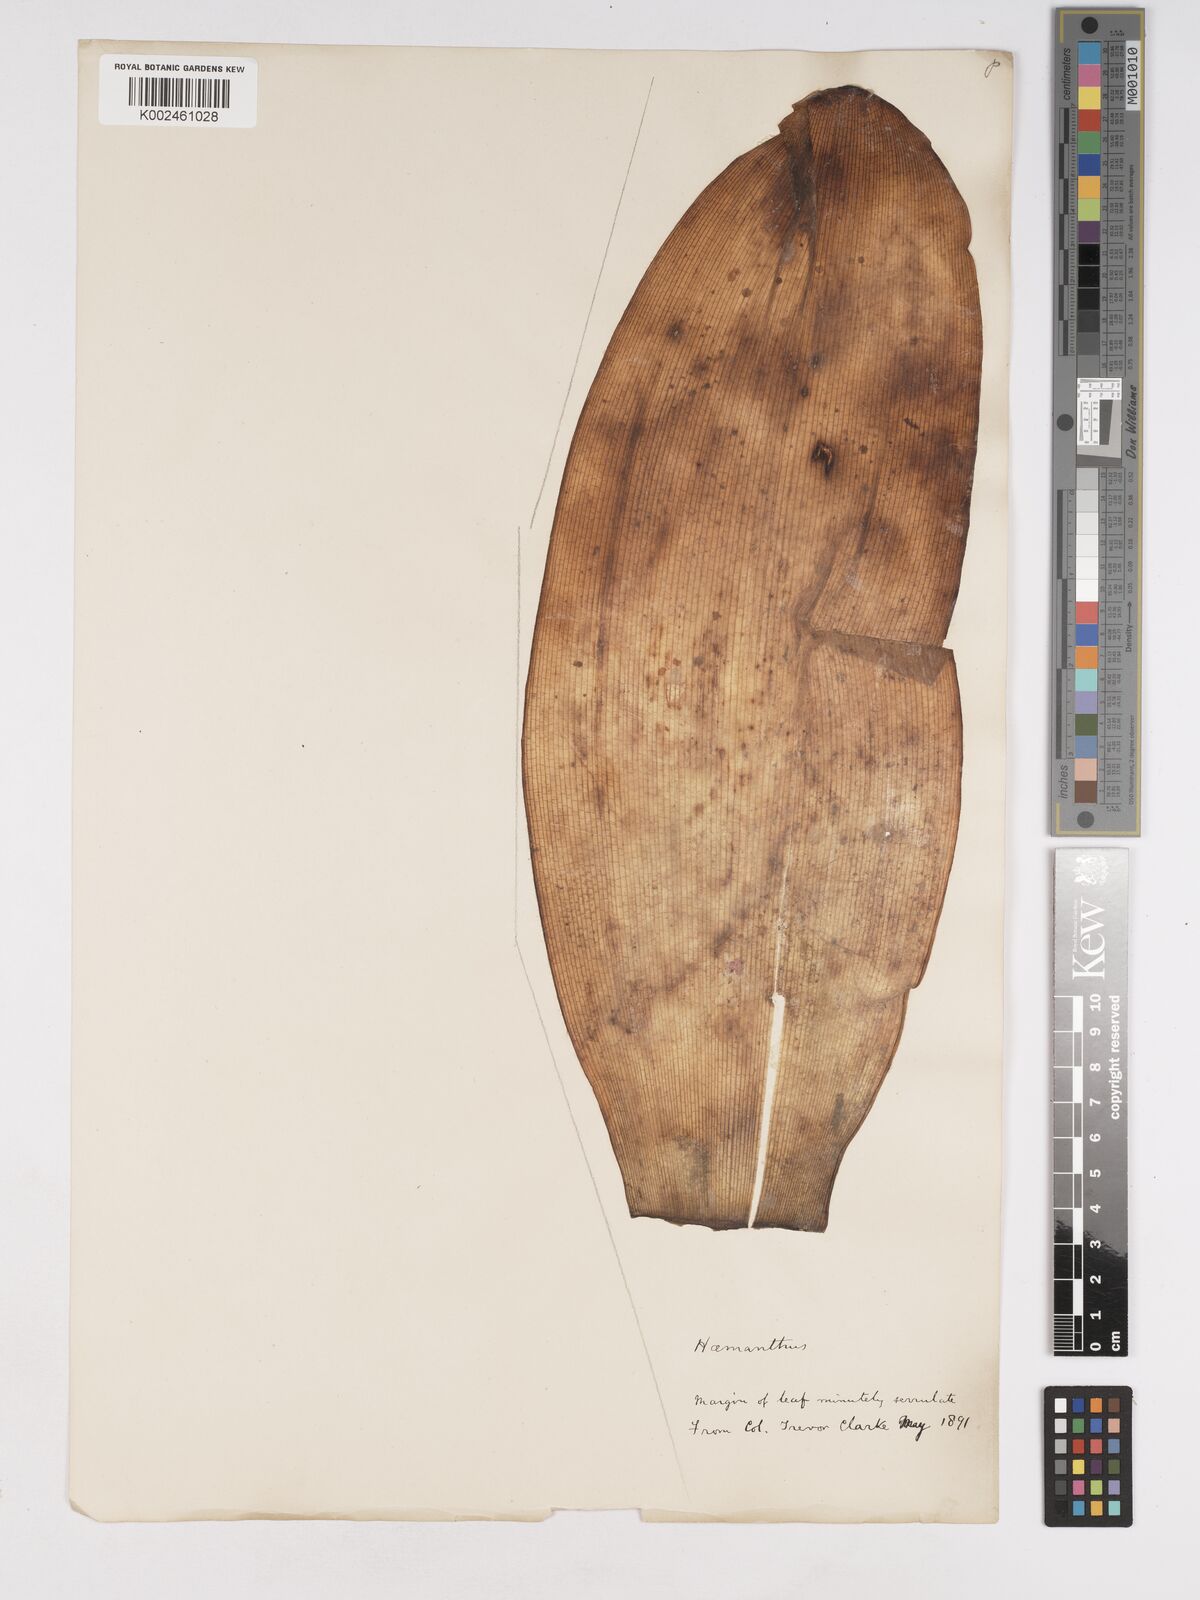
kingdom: Plantae
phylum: Tracheophyta
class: Liliopsida
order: Asparagales
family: Amaryllidaceae
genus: Haemanthus
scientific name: Haemanthus
